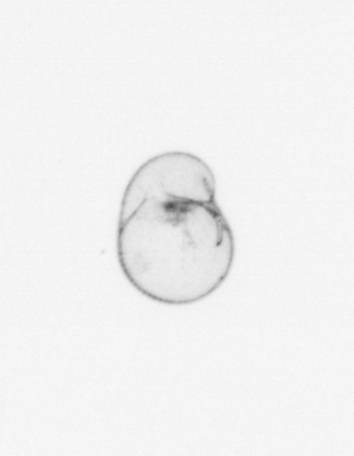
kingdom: Chromista
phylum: Myzozoa
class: Dinophyceae
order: Noctilucales
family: Noctilucaceae
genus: Noctiluca
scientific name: Noctiluca scintillans
